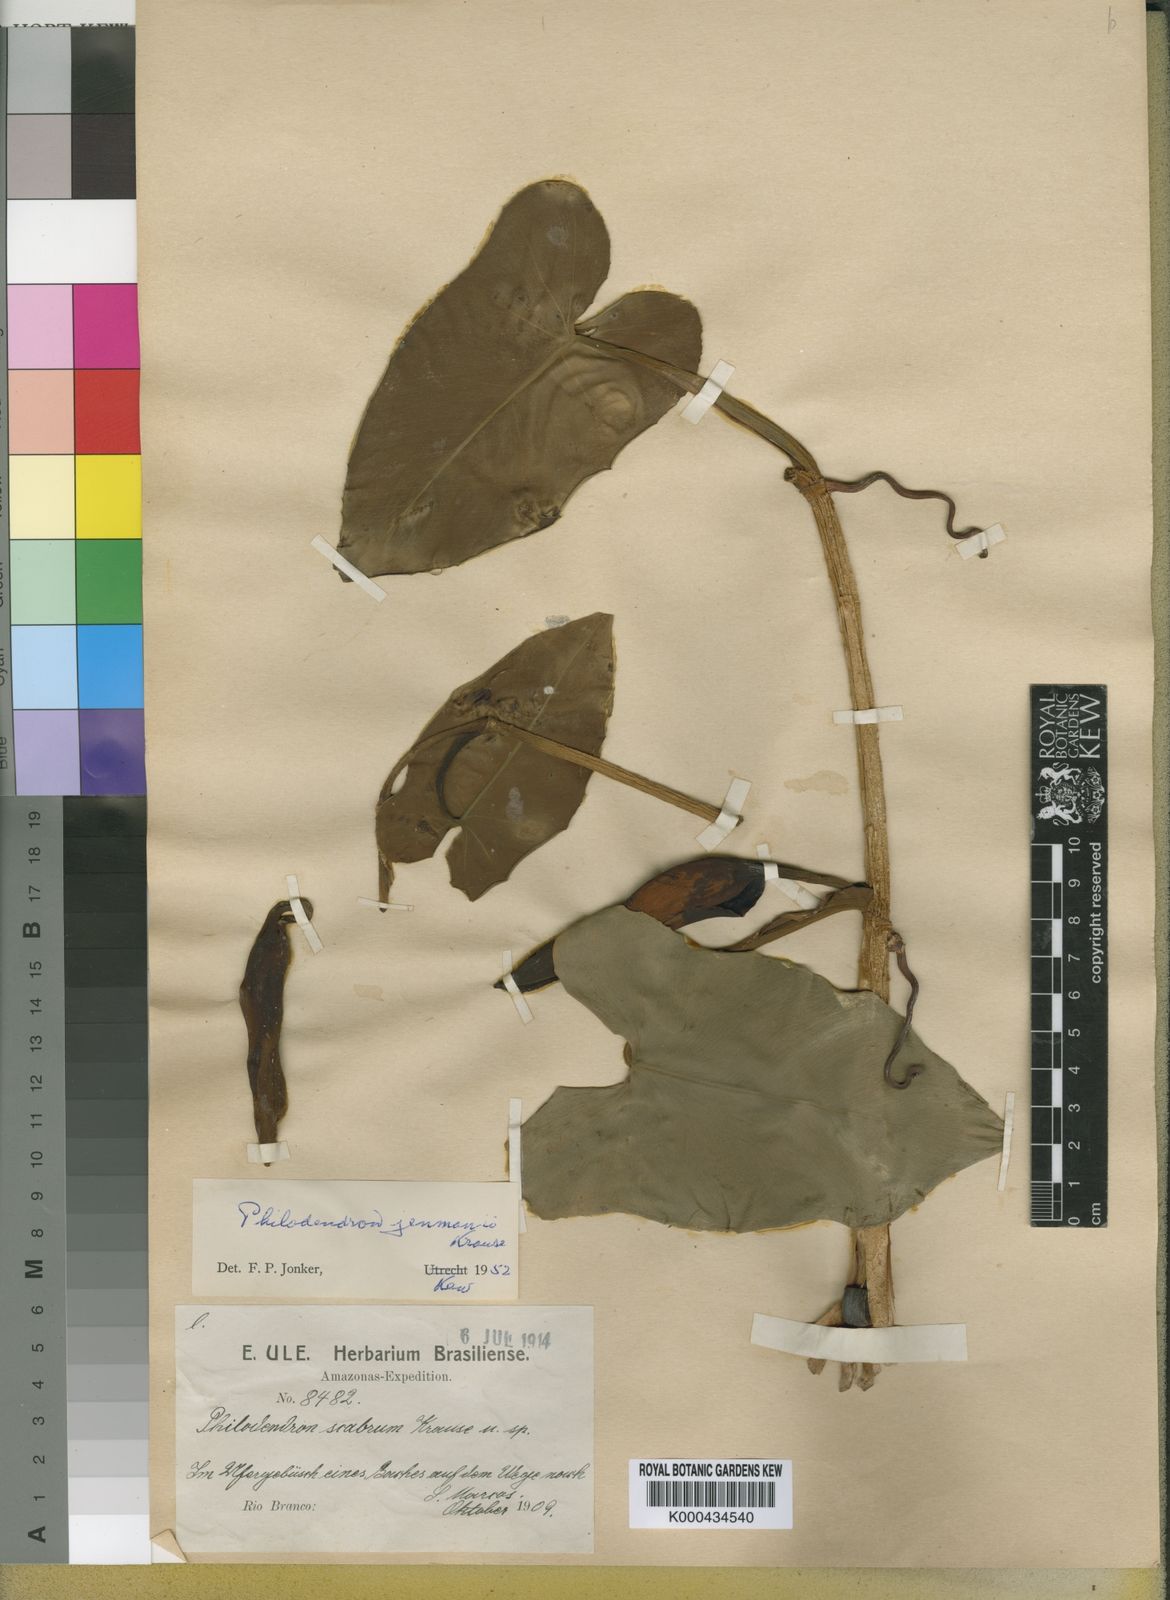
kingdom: Plantae
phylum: Tracheophyta
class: Liliopsida
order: Alismatales
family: Araceae
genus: Philodendron
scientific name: Philodendron muricatum
